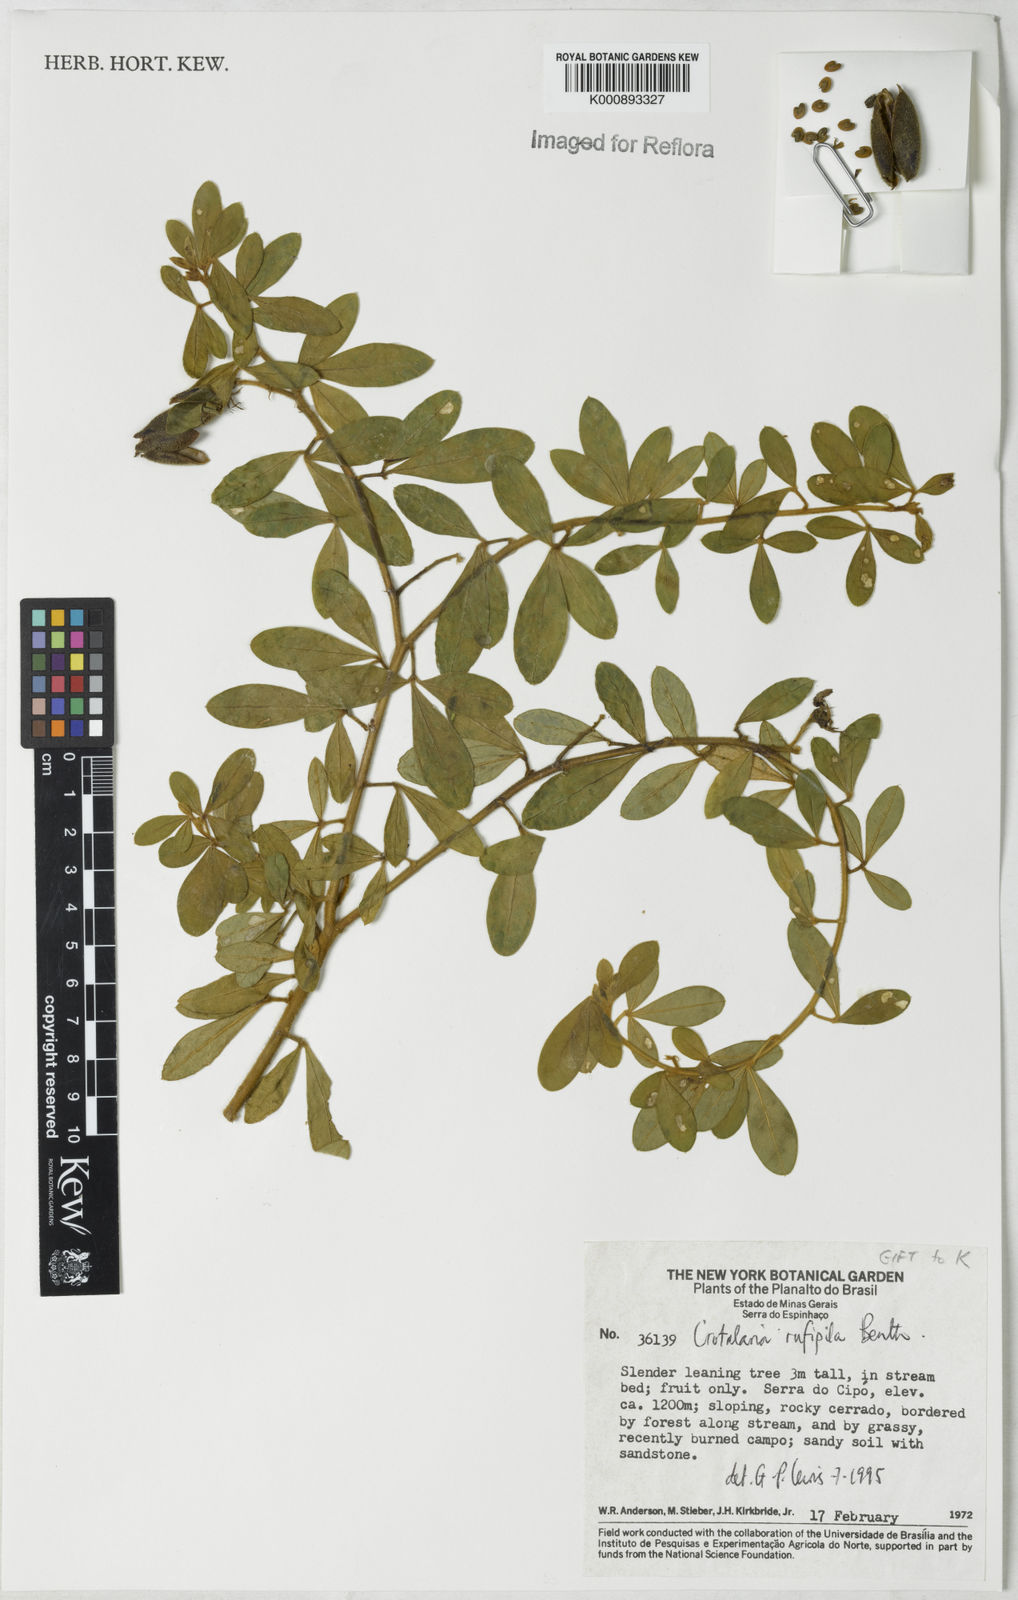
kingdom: Plantae
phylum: Tracheophyta
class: Magnoliopsida
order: Fabales
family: Fabaceae
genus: Crotalaria
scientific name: Crotalaria rufipila
